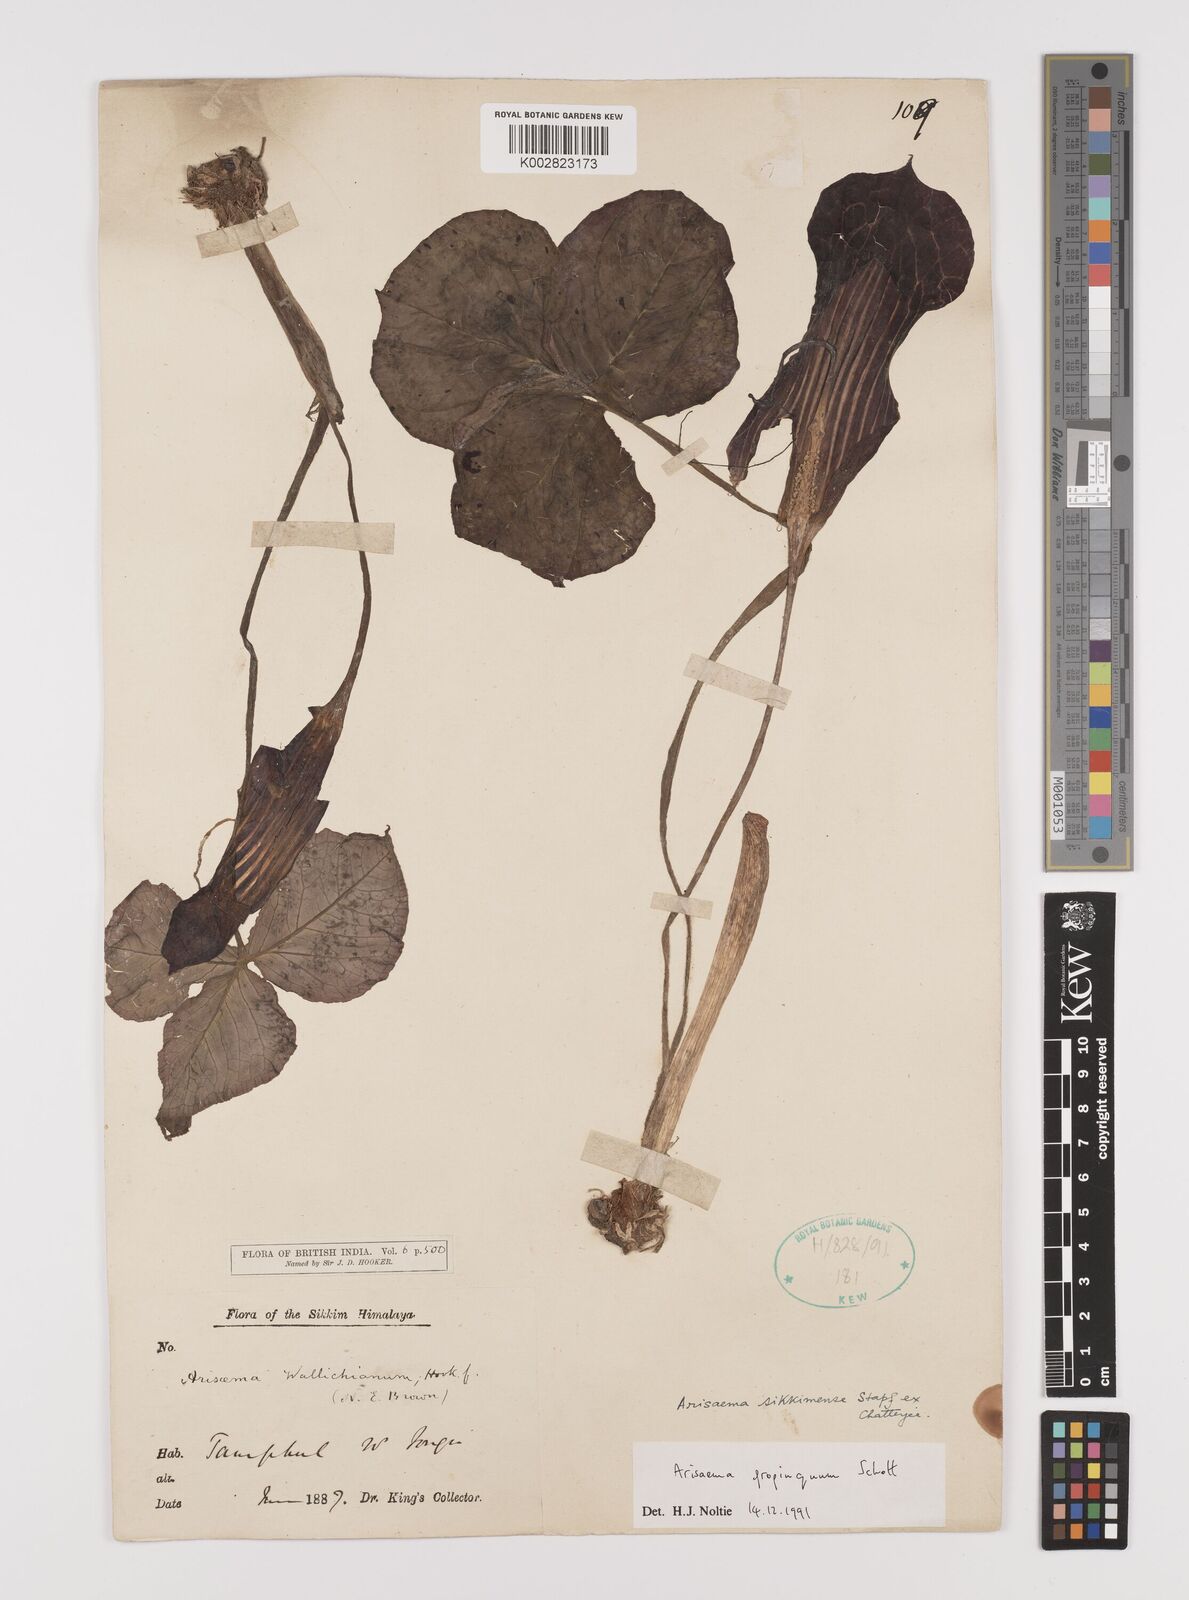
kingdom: Plantae
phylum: Tracheophyta
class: Liliopsida
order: Alismatales
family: Araceae
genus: Arisaema
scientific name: Arisaema propinquum
